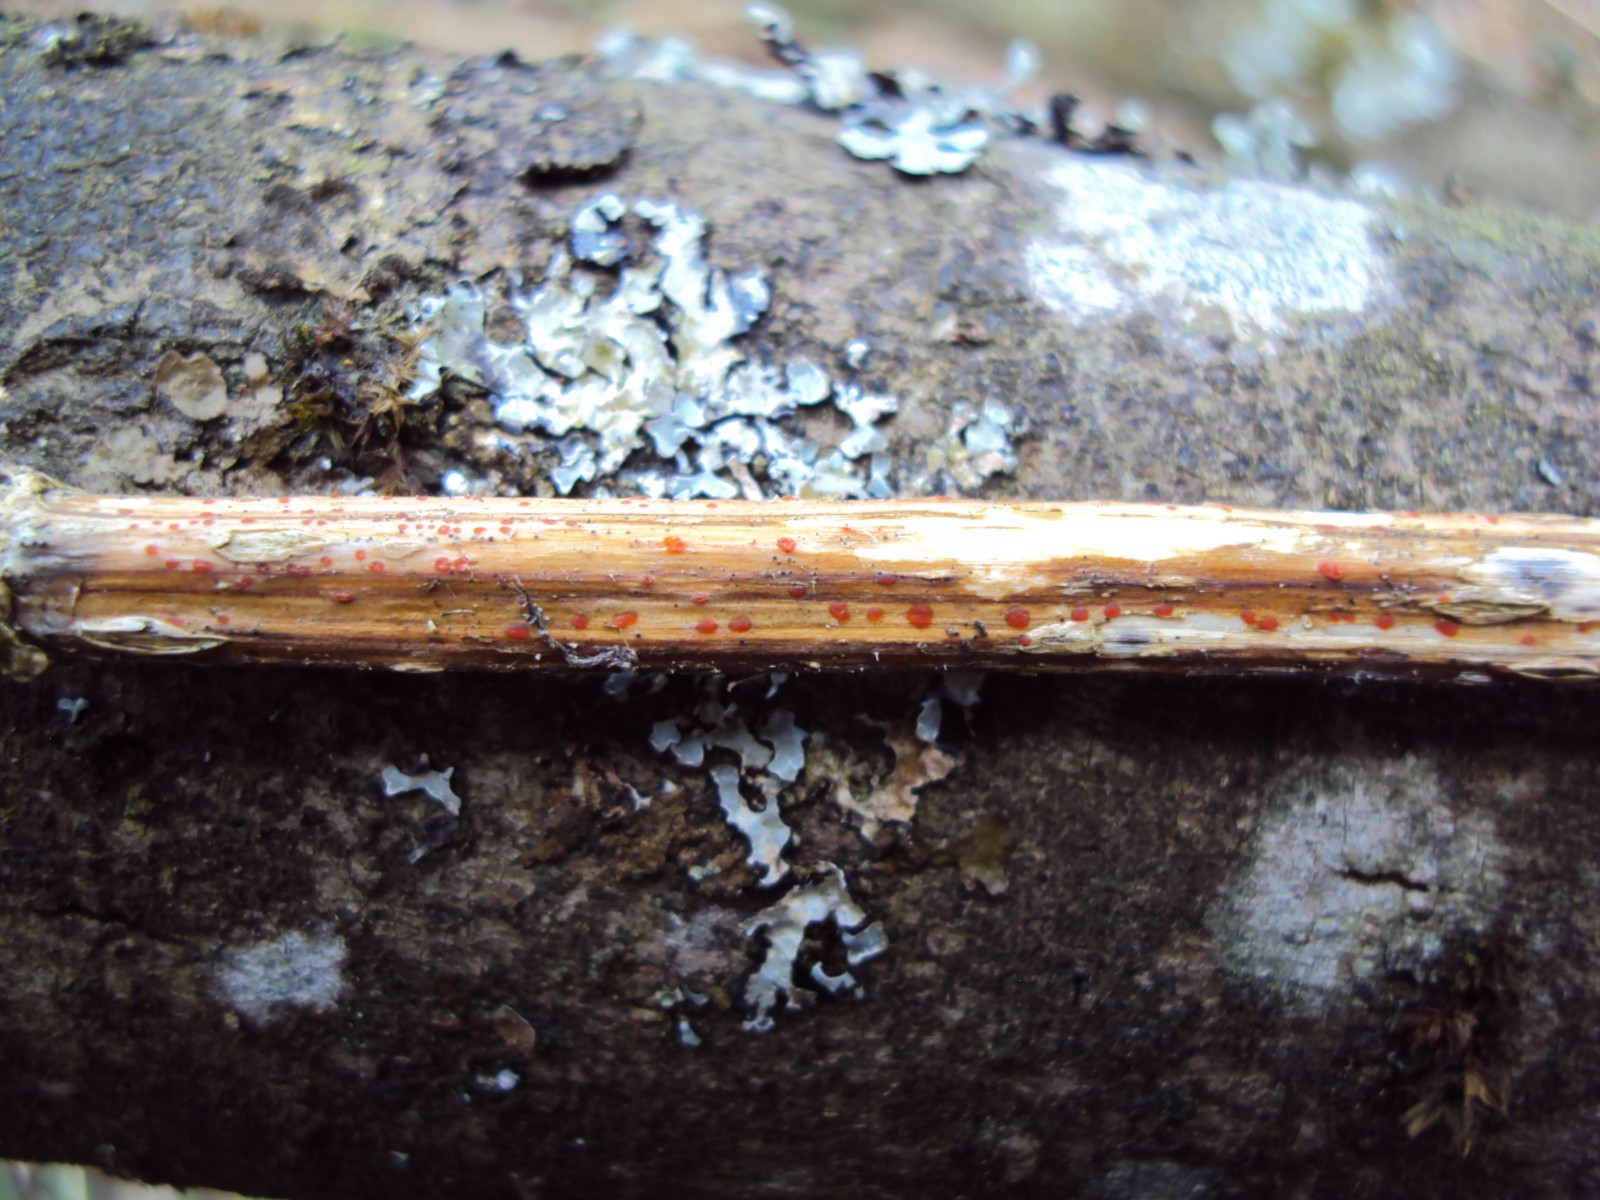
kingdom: Fungi
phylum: Ascomycota
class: Leotiomycetes
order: Helotiales
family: Calloriaceae
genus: Calloria
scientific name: Calloria urticae
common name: nælde-orangeskive
